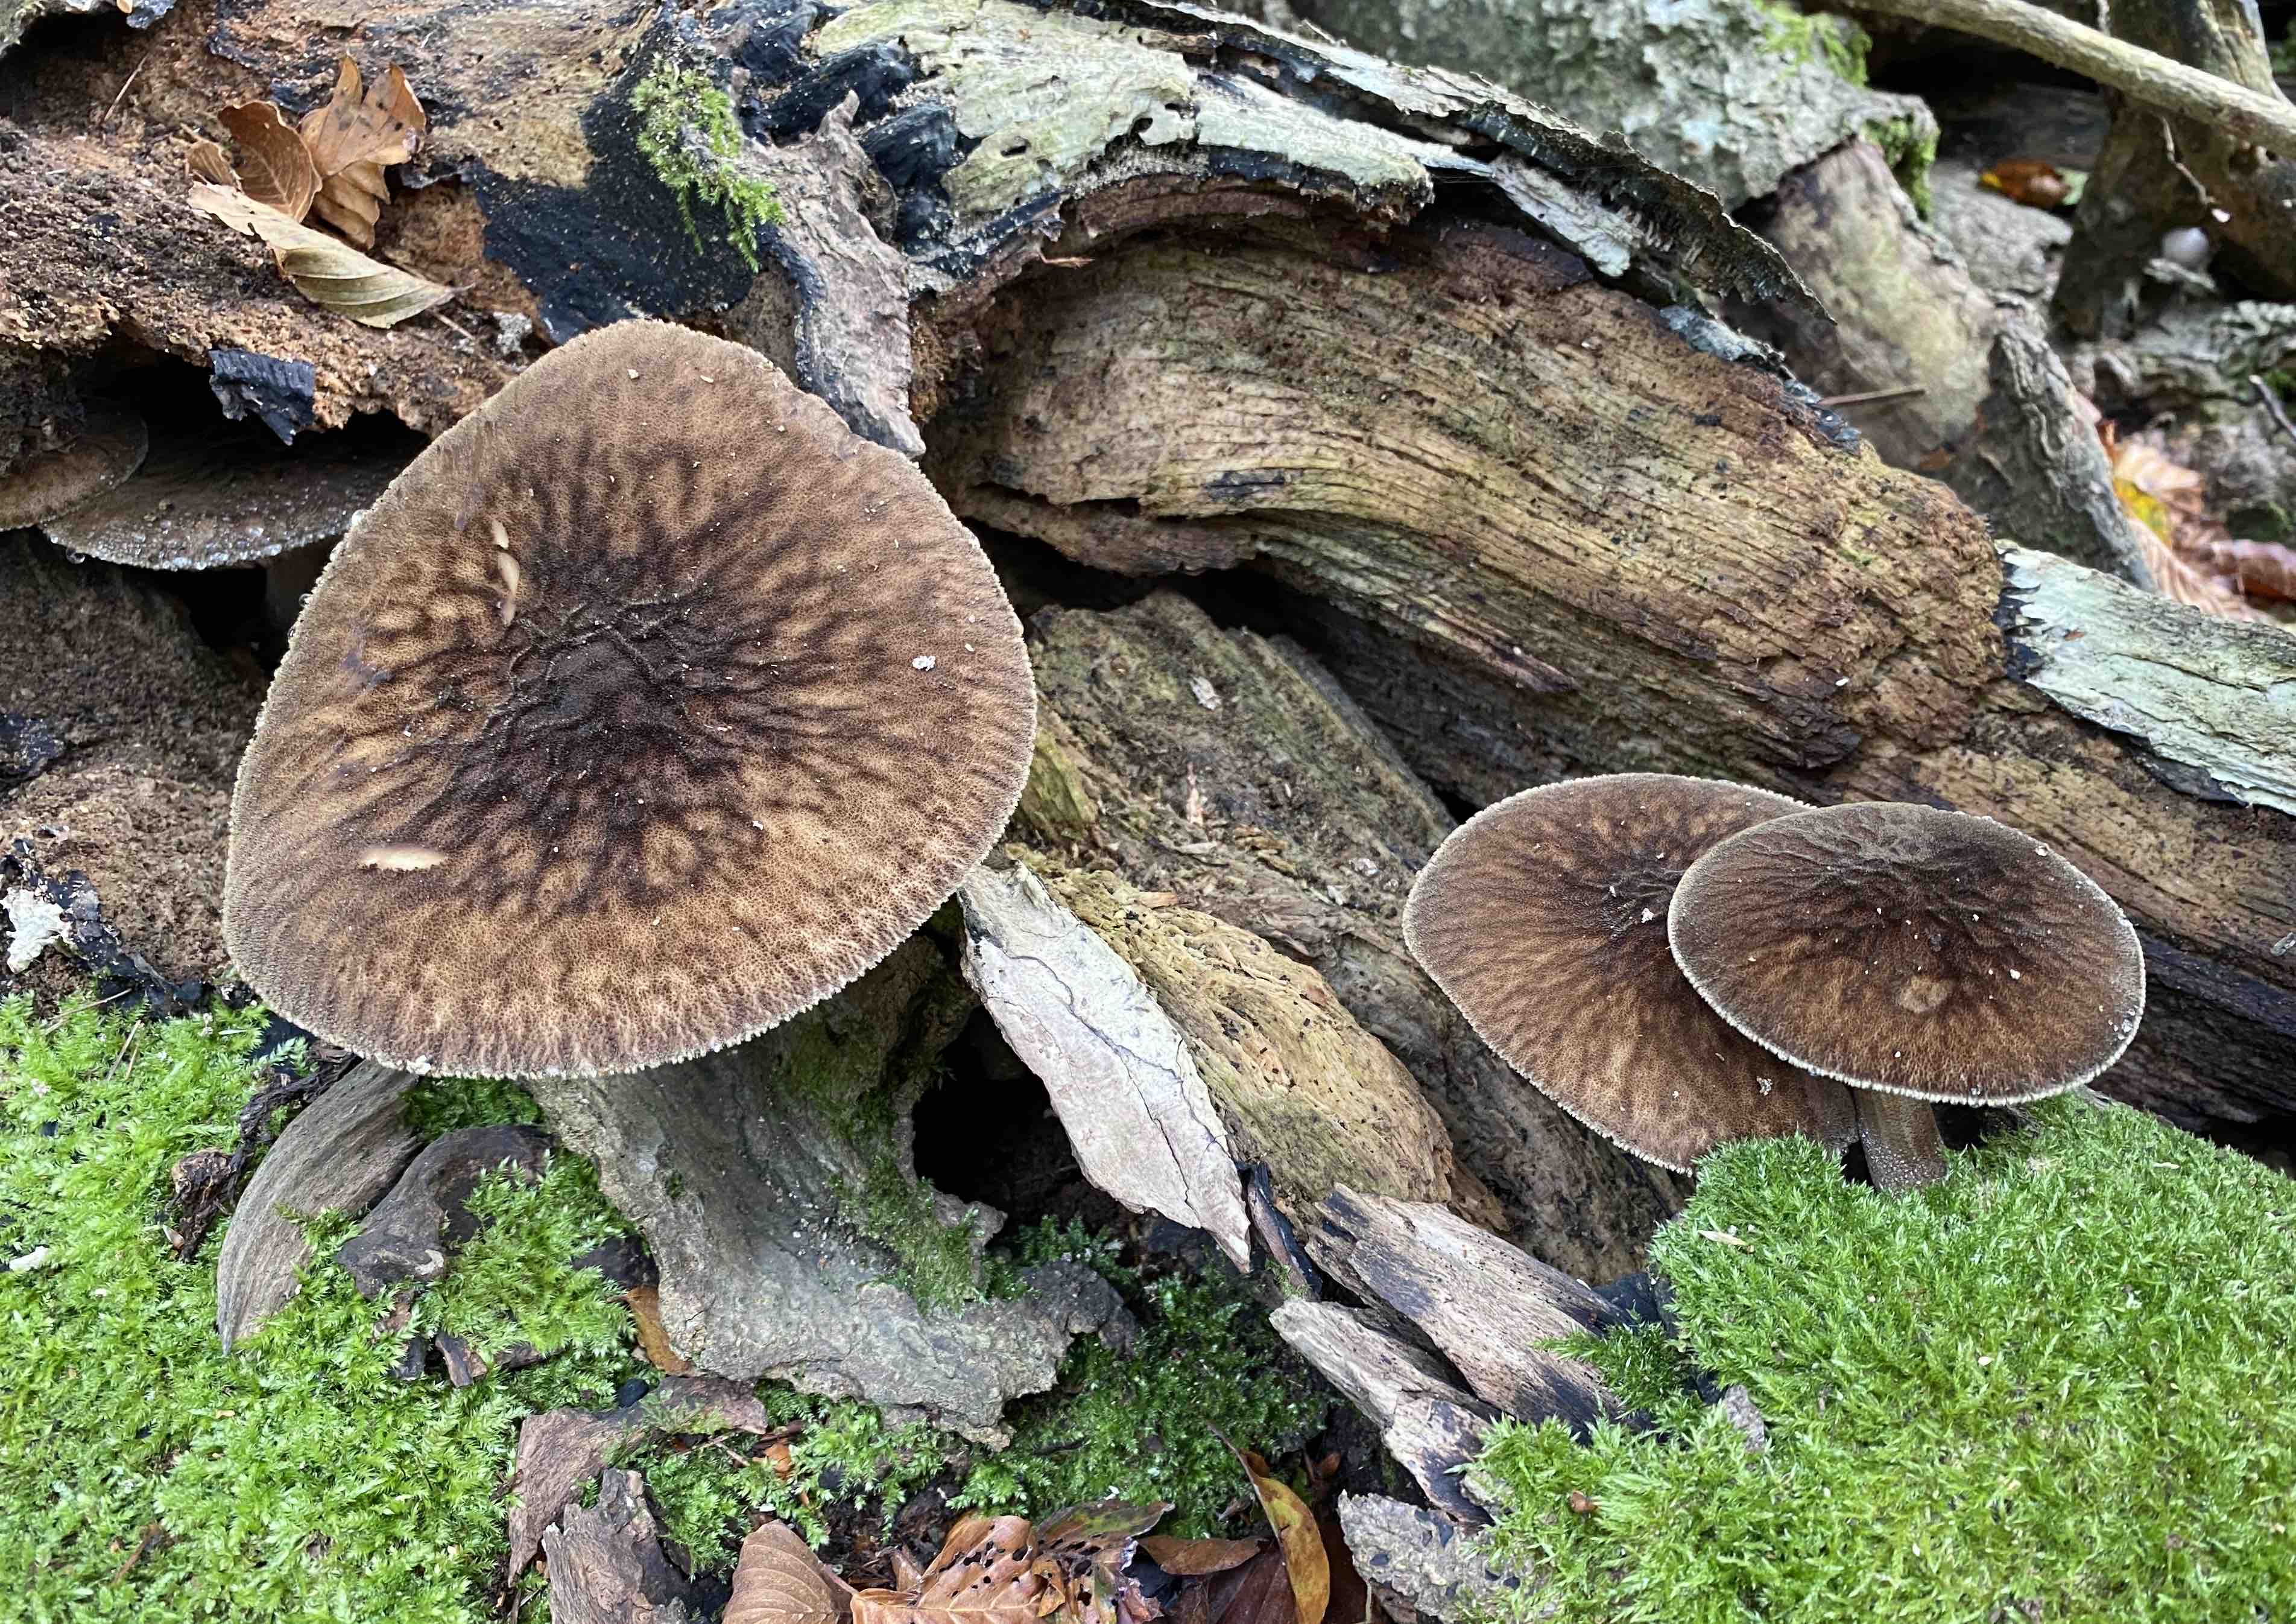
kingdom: Fungi
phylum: Basidiomycota
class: Agaricomycetes
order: Agaricales
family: Pluteaceae
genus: Pluteus
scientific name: Pluteus umbrosus
